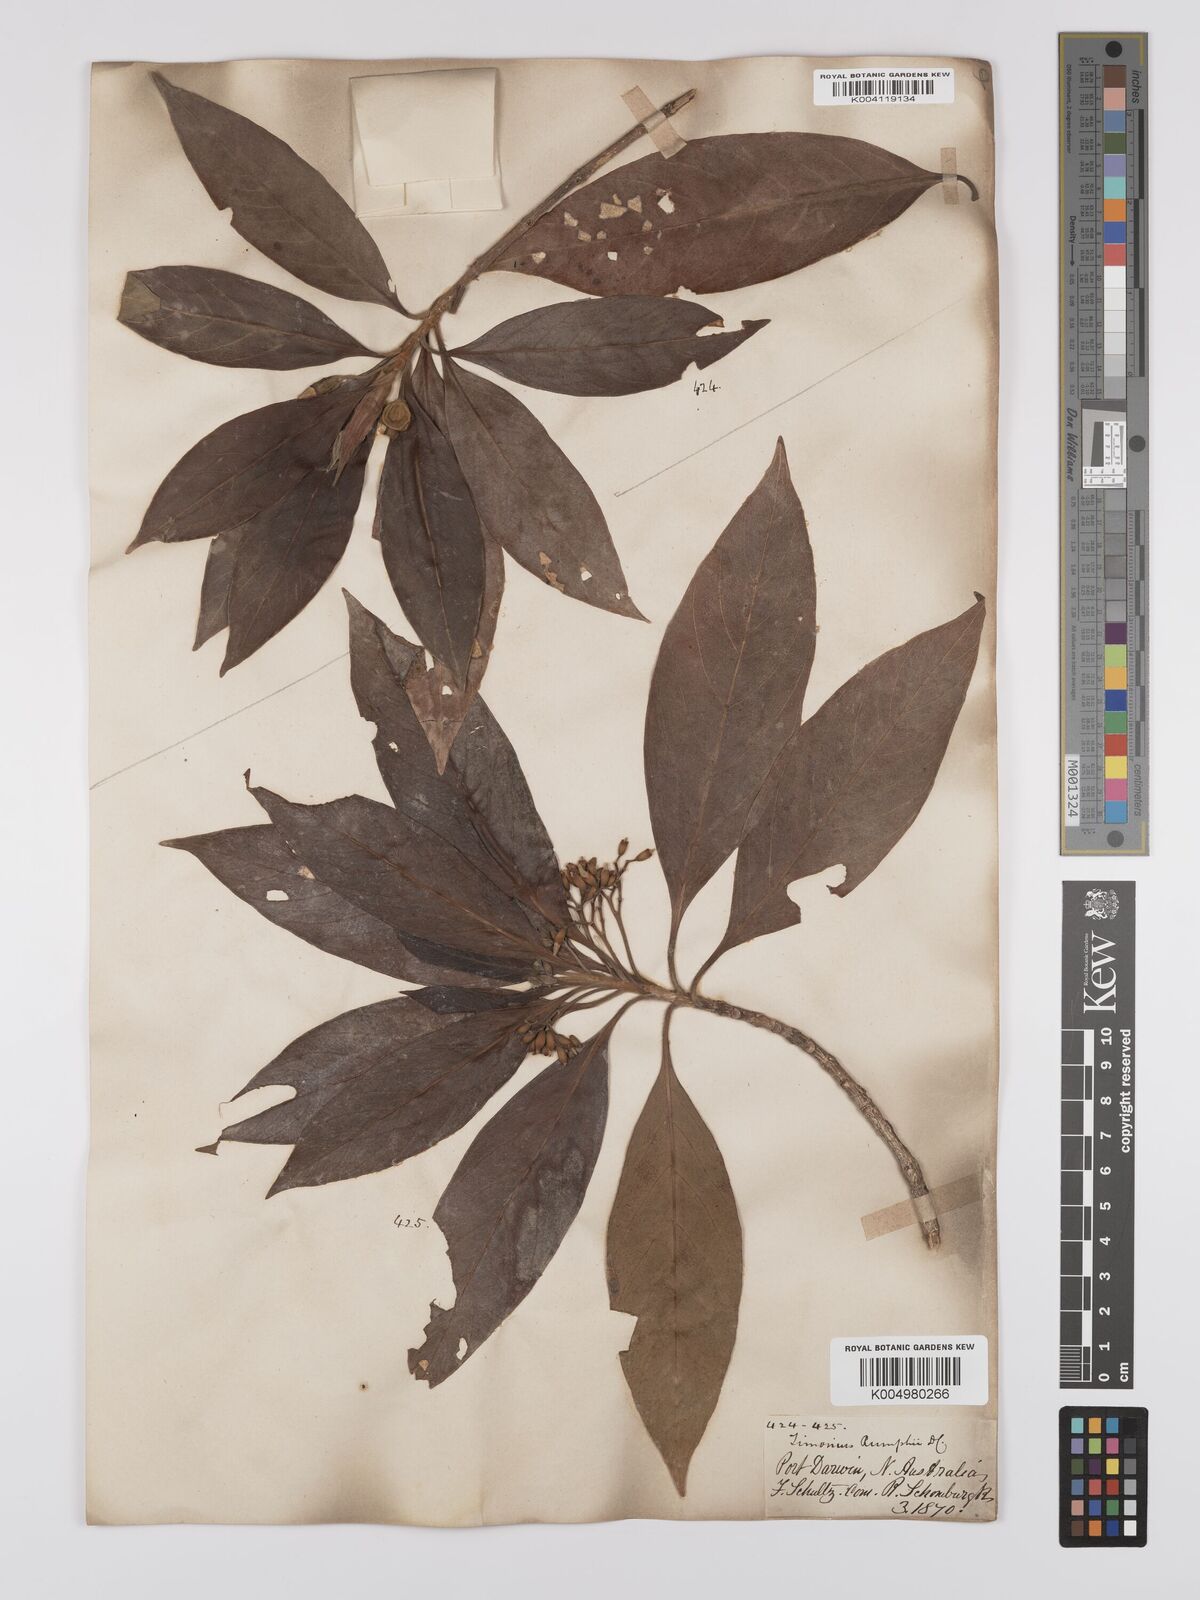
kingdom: Plantae
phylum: Tracheophyta
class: Magnoliopsida
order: Gentianales
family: Rubiaceae
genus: Timonius
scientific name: Timonius timon
